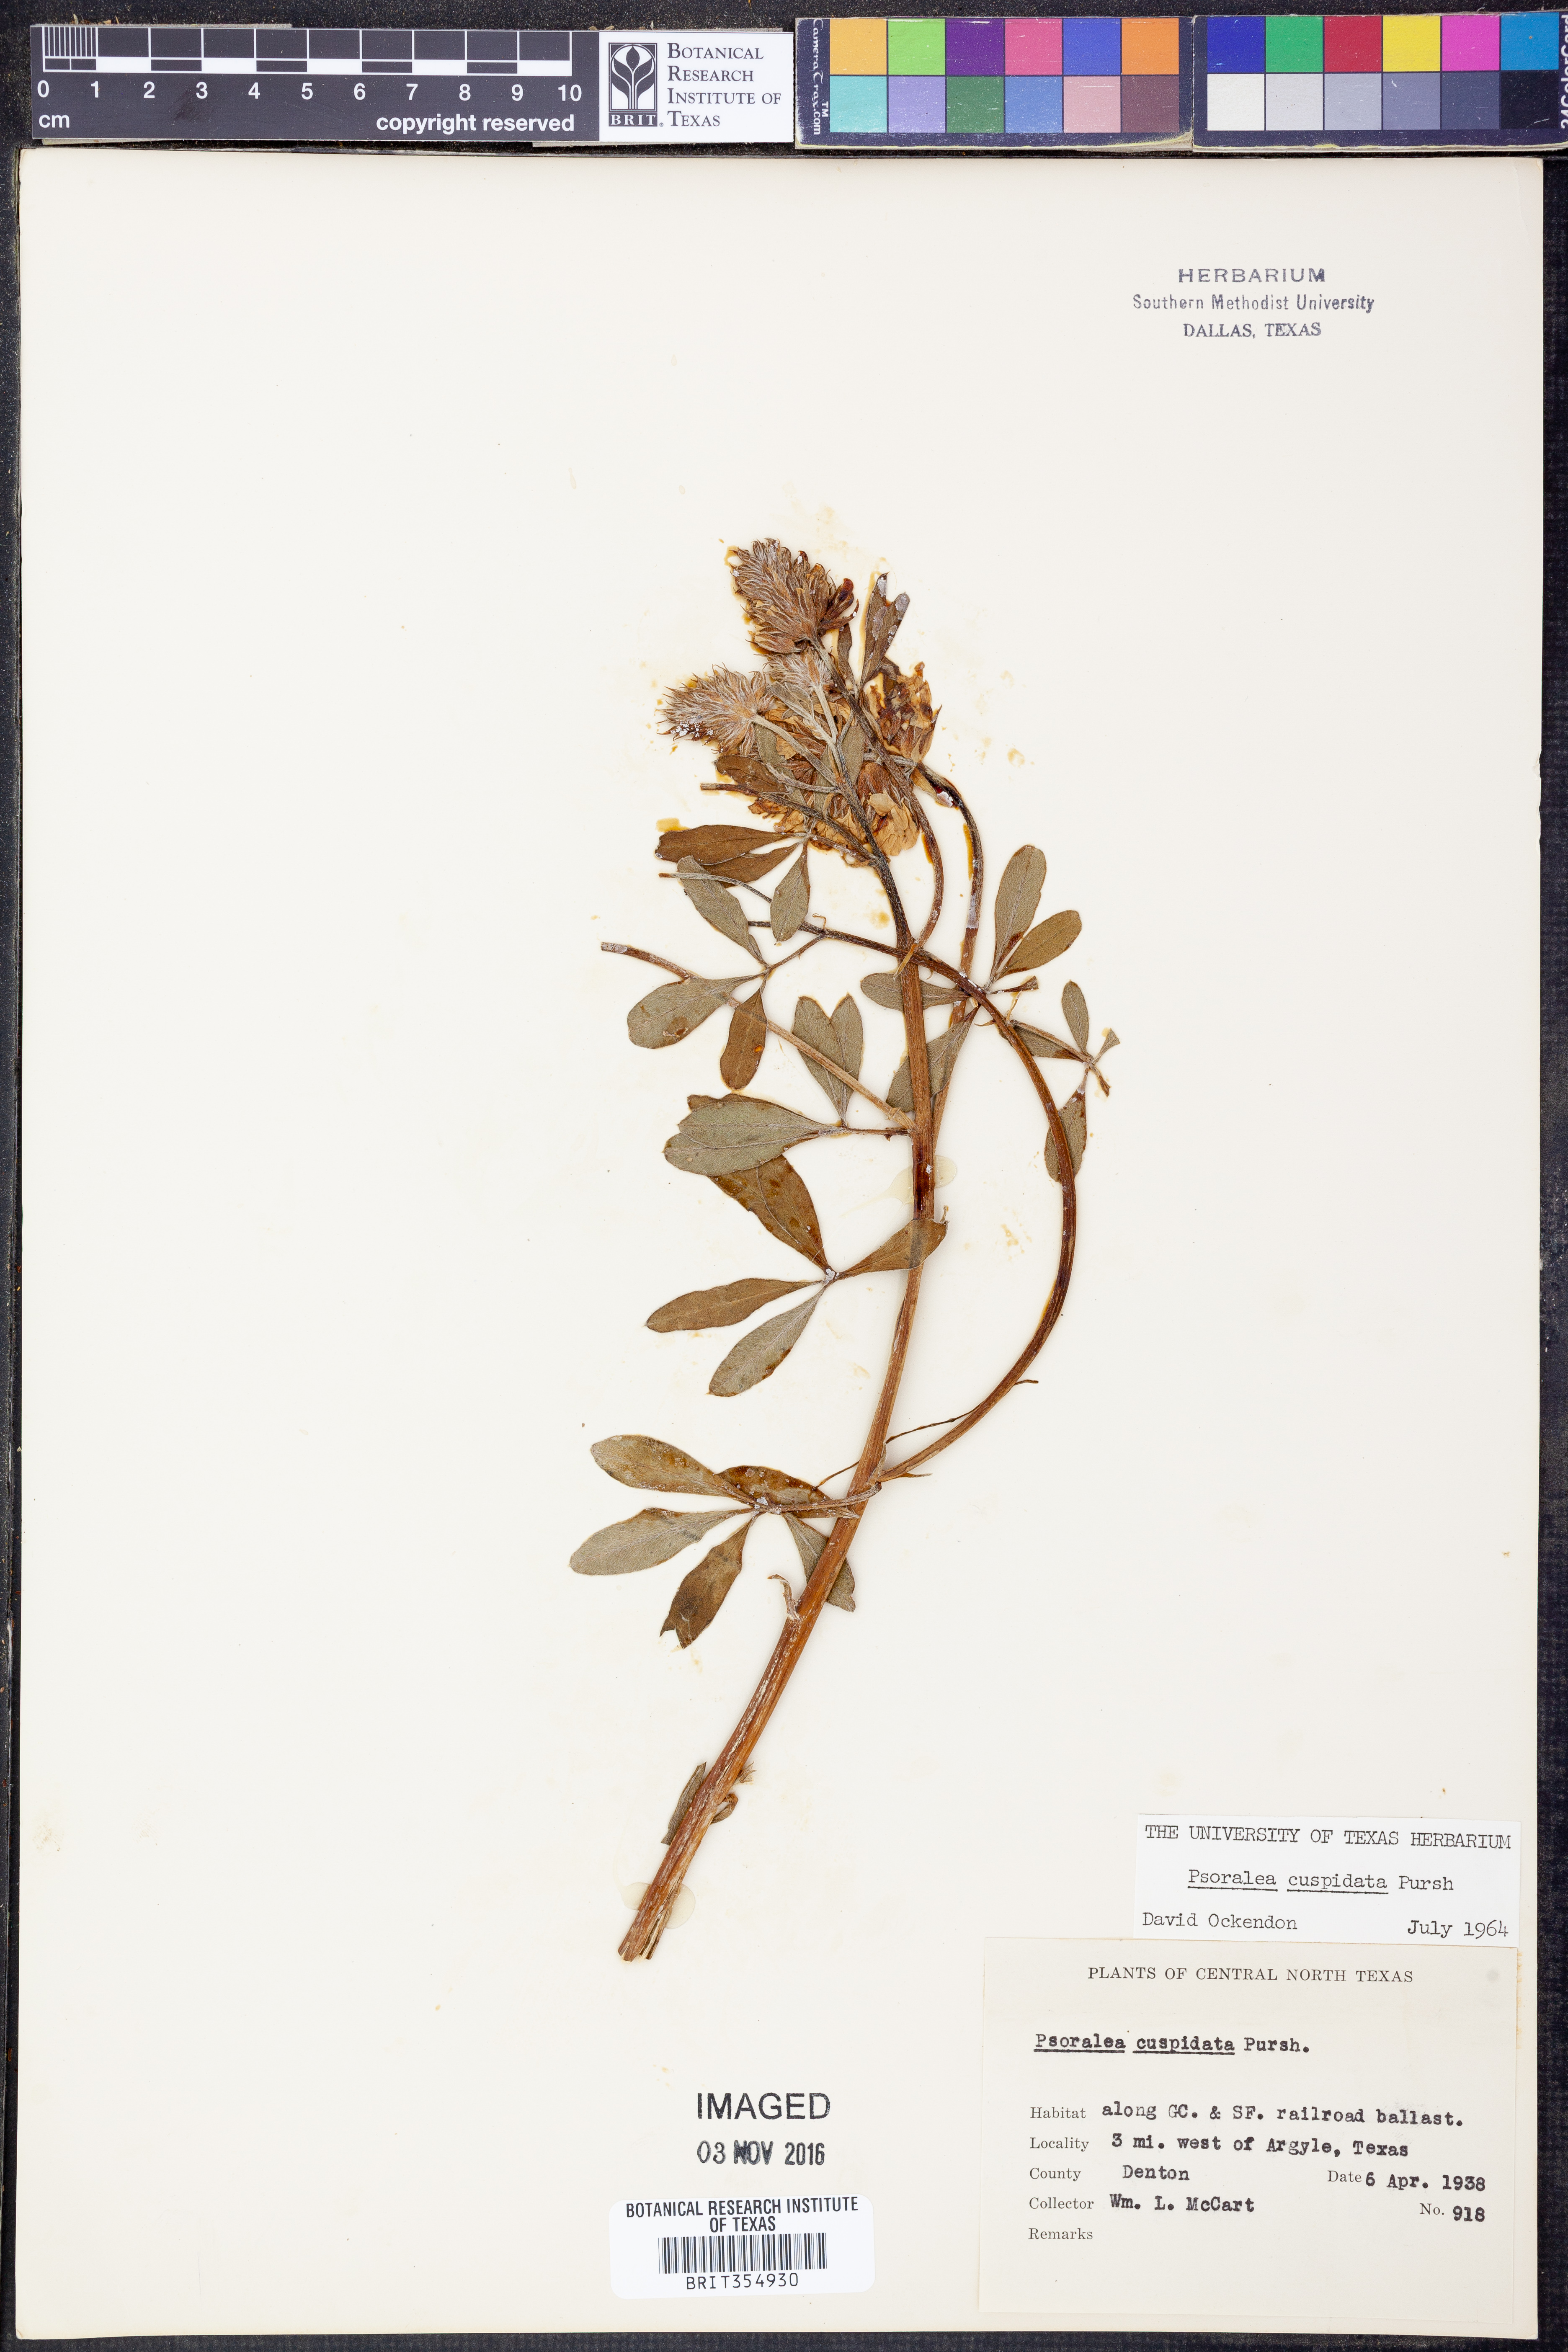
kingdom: Plantae
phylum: Tracheophyta
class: Magnoliopsida
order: Fabales
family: Fabaceae
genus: Pediomelum
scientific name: Pediomelum cuspidatum
